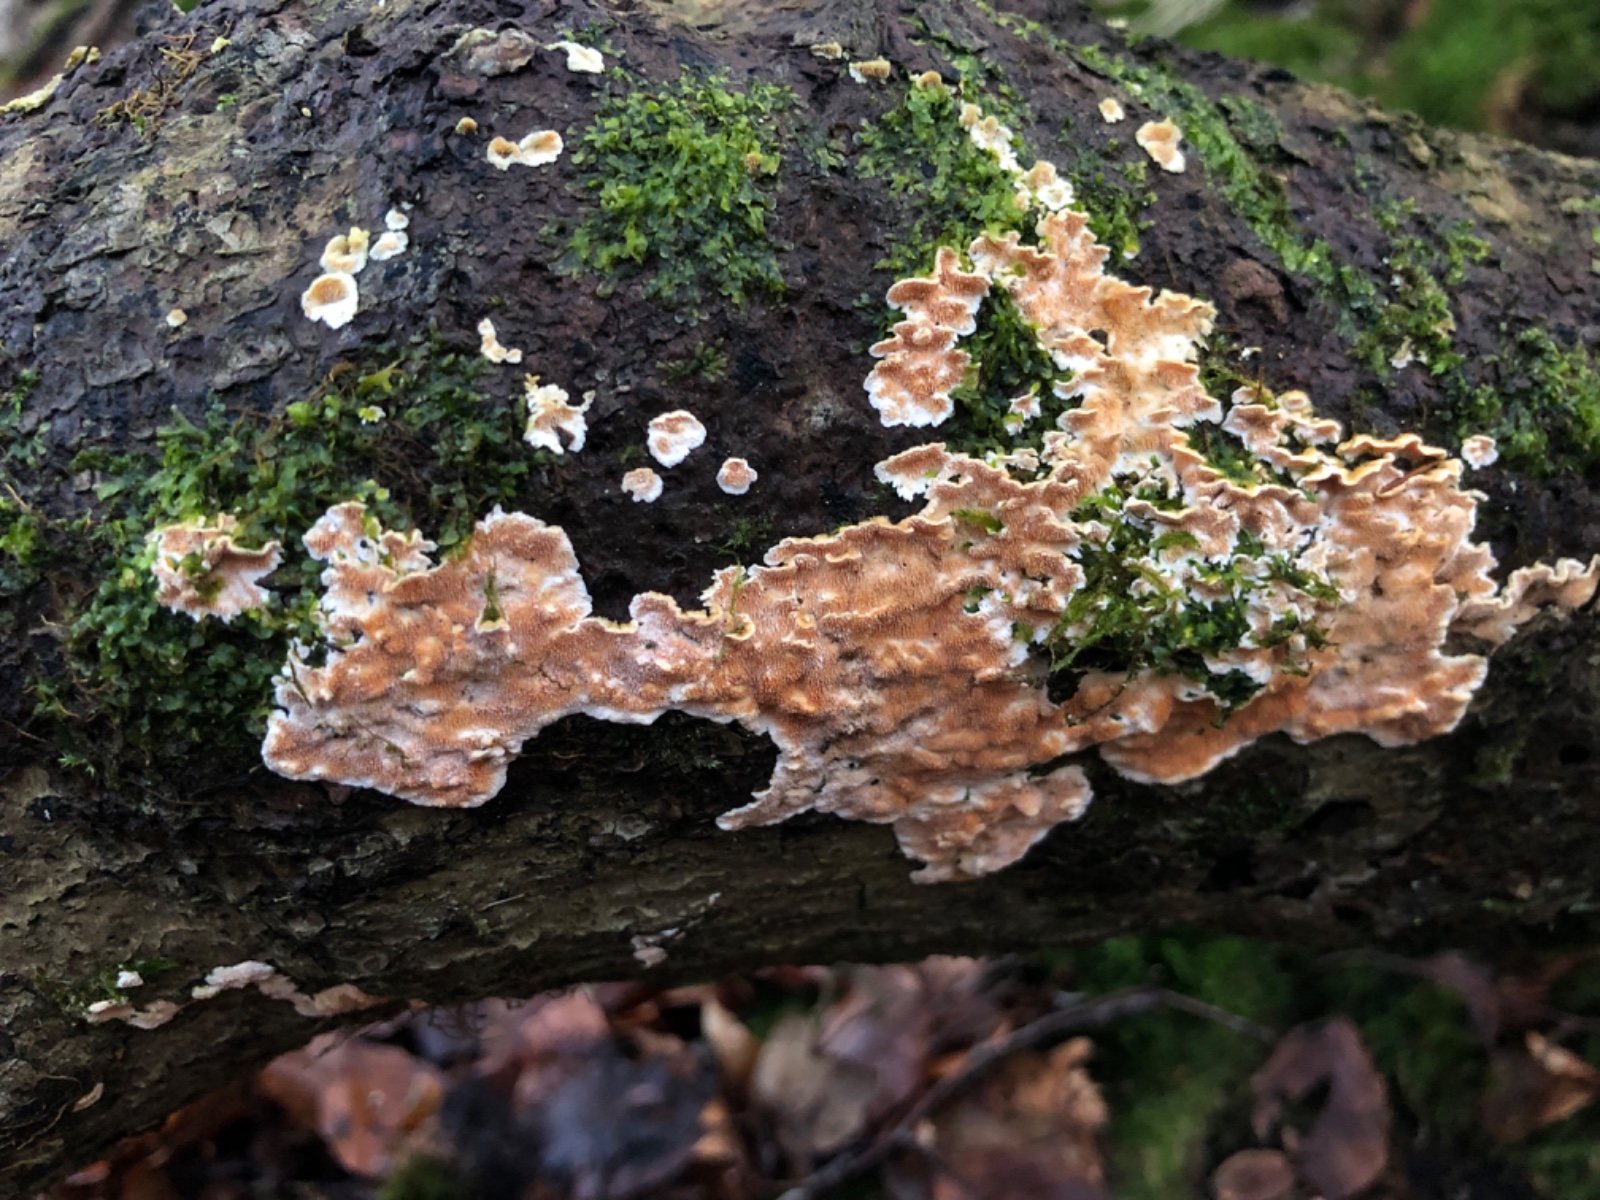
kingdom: Fungi
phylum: Basidiomycota
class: Agaricomycetes
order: Polyporales
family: Steccherinaceae
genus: Steccherinum
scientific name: Steccherinum ochraceum
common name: almindelig skønpig
